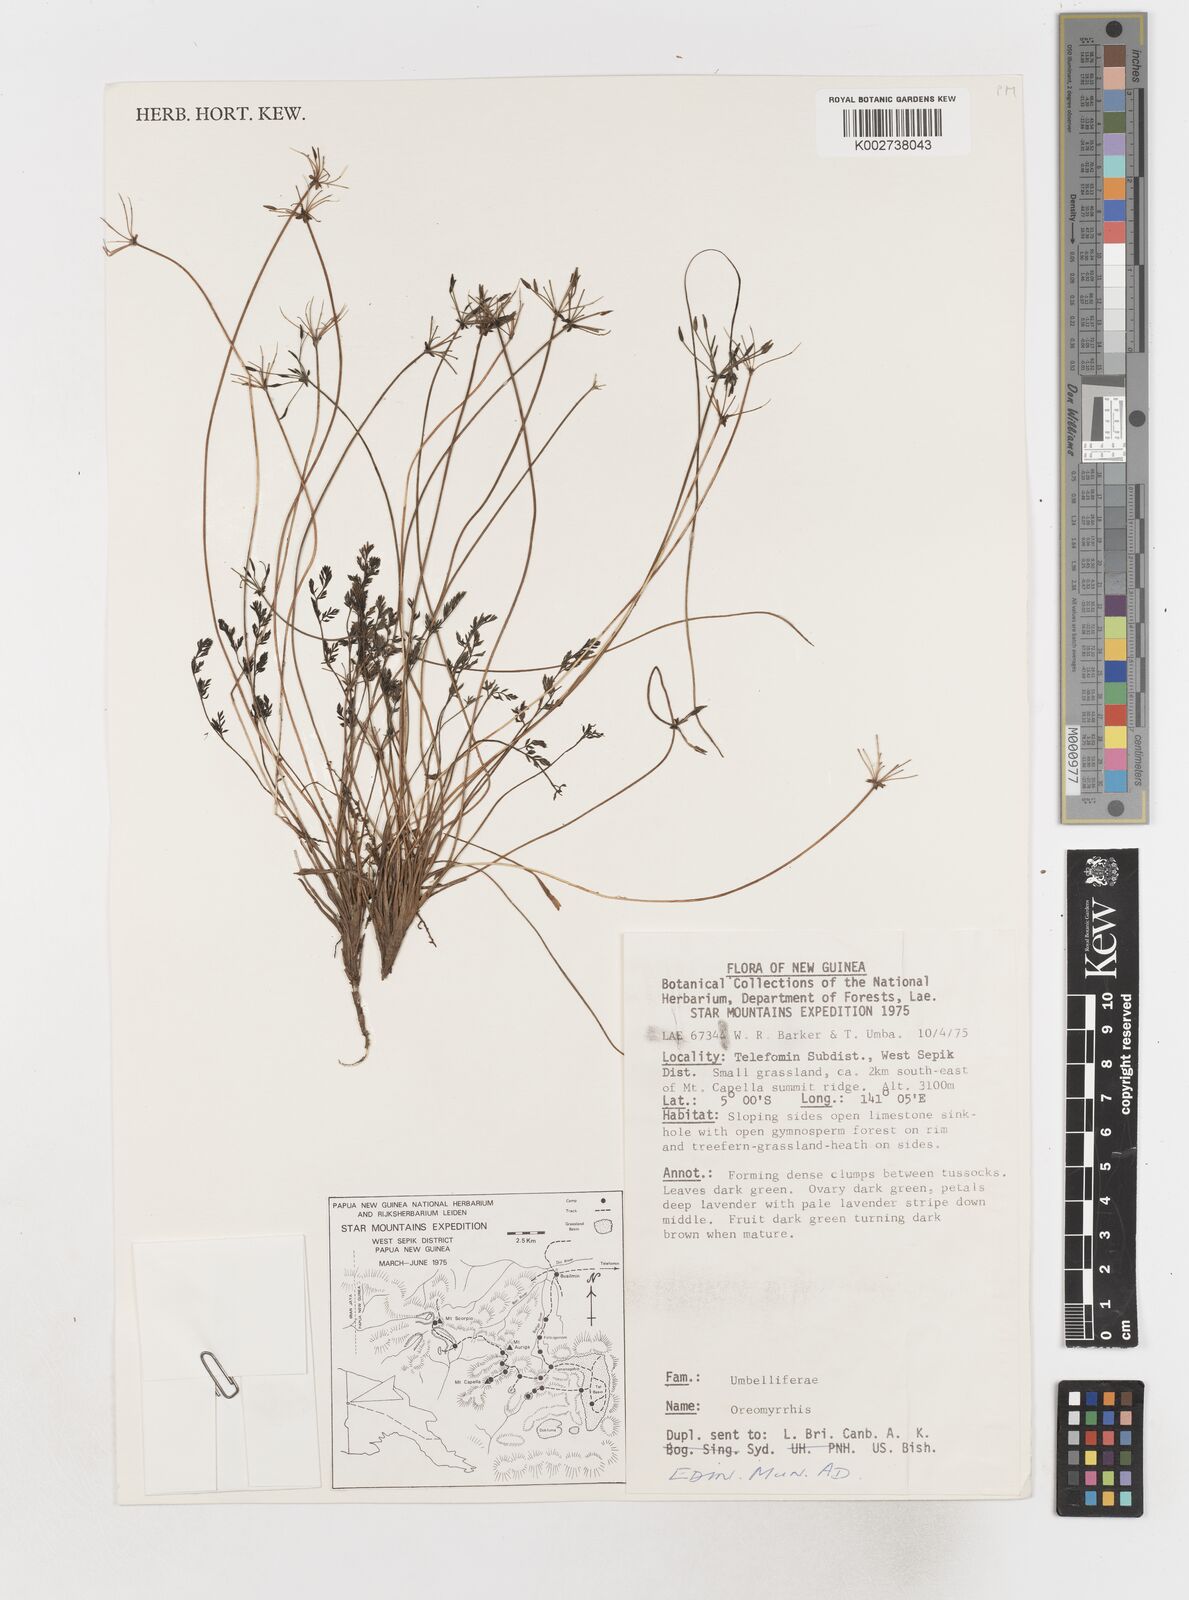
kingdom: Plantae
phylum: Tracheophyta
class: Magnoliopsida
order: Apiales
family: Apiaceae
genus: Chaerophyllum
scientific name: Chaerophyllum pumilum
